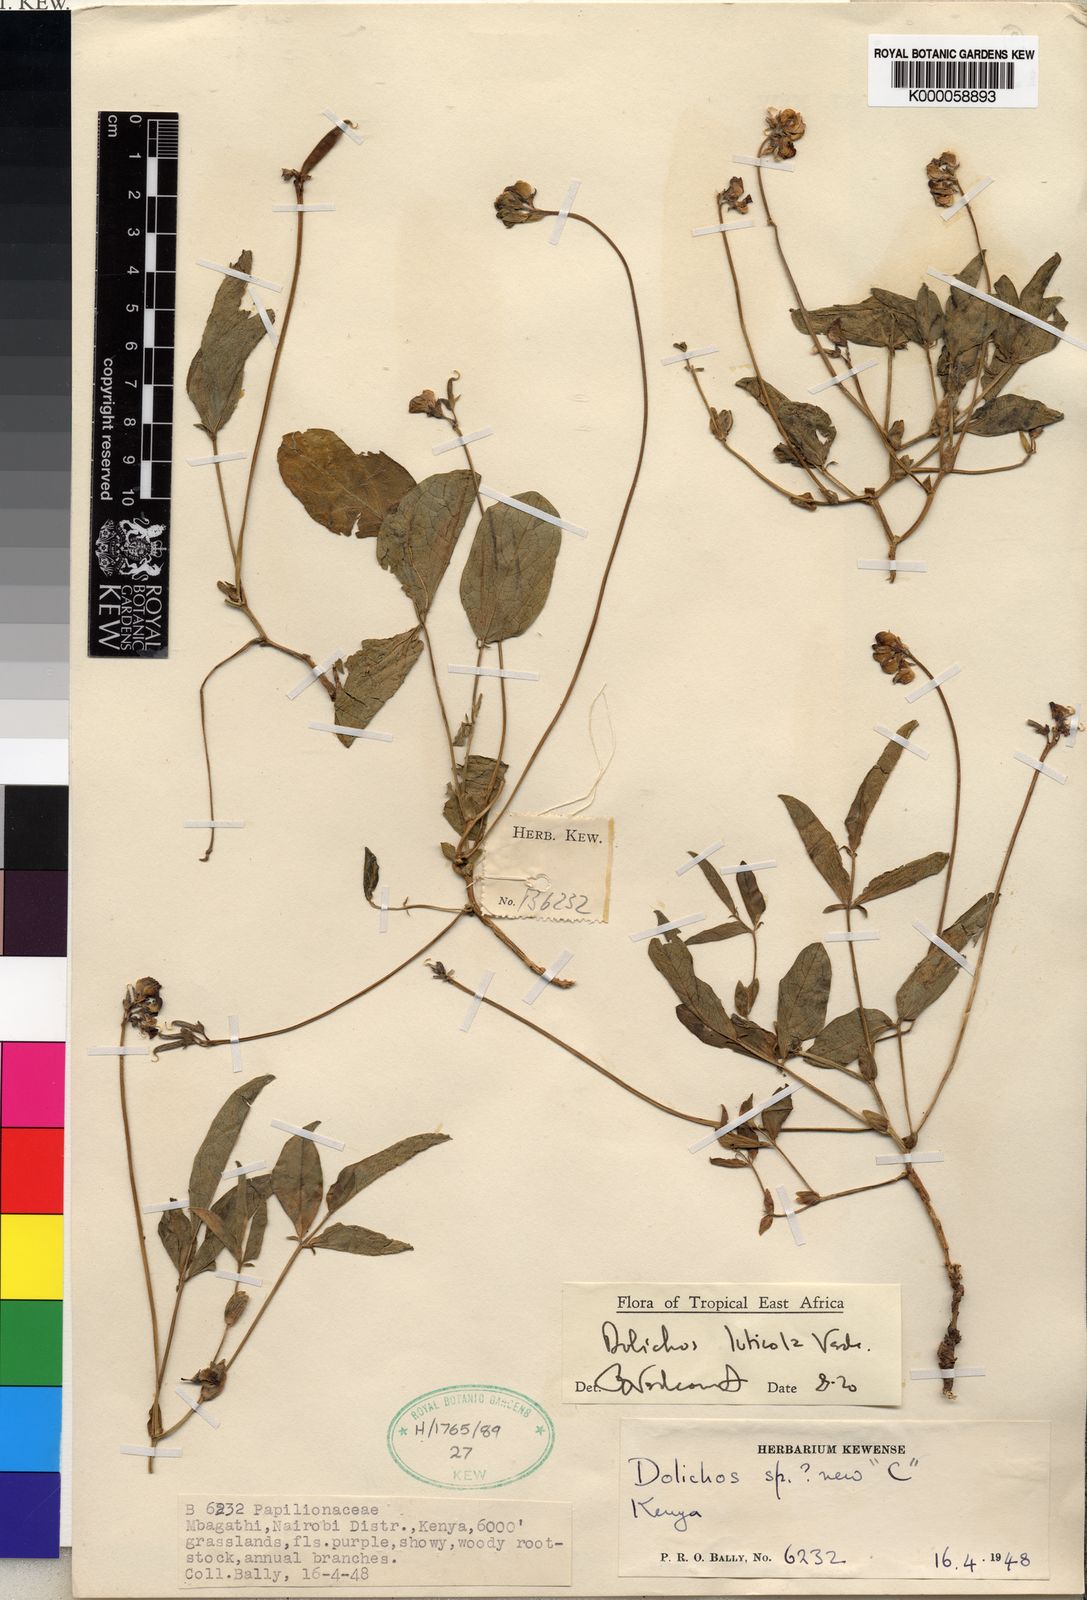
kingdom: Plantae
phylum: Tracheophyta
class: Magnoliopsida
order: Fabales
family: Fabaceae
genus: Dolichos
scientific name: Dolichos luticola
